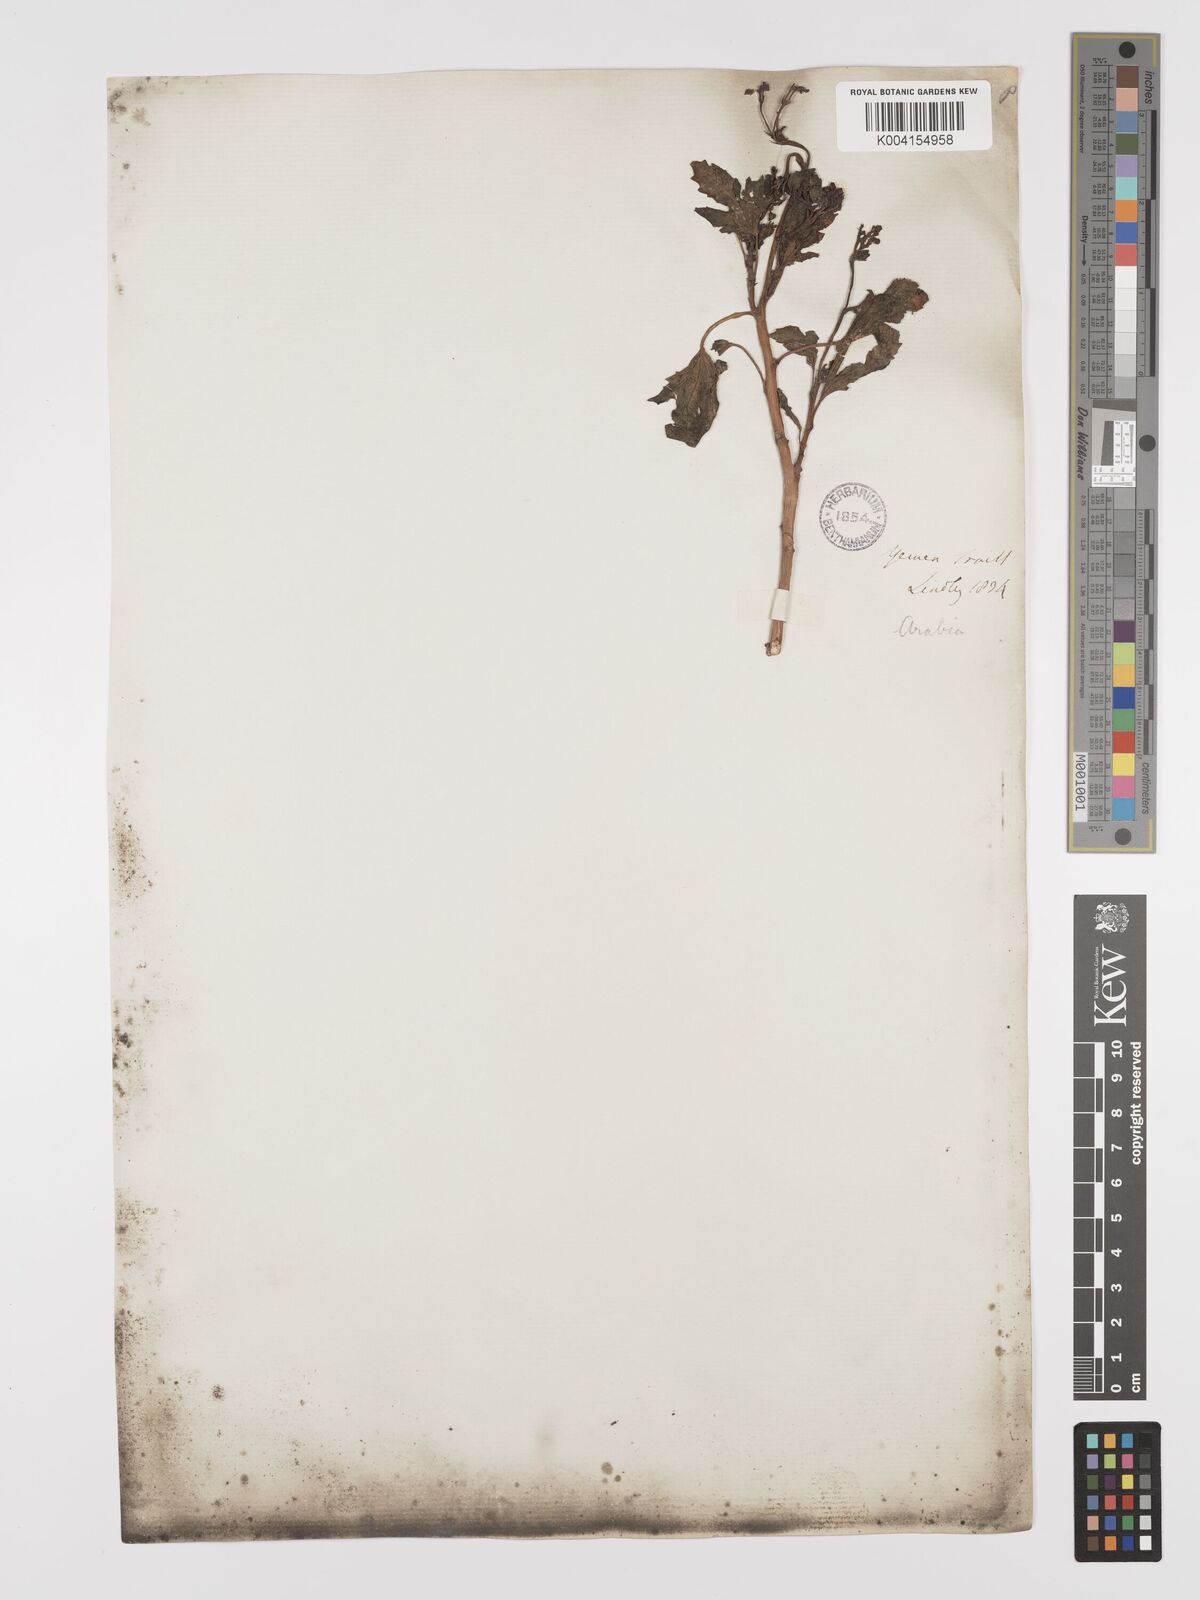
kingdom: Plantae
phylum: Tracheophyta
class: Magnoliopsida
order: Malpighiales
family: Euphorbiaceae
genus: Jatropha
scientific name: Jatropha glauca
